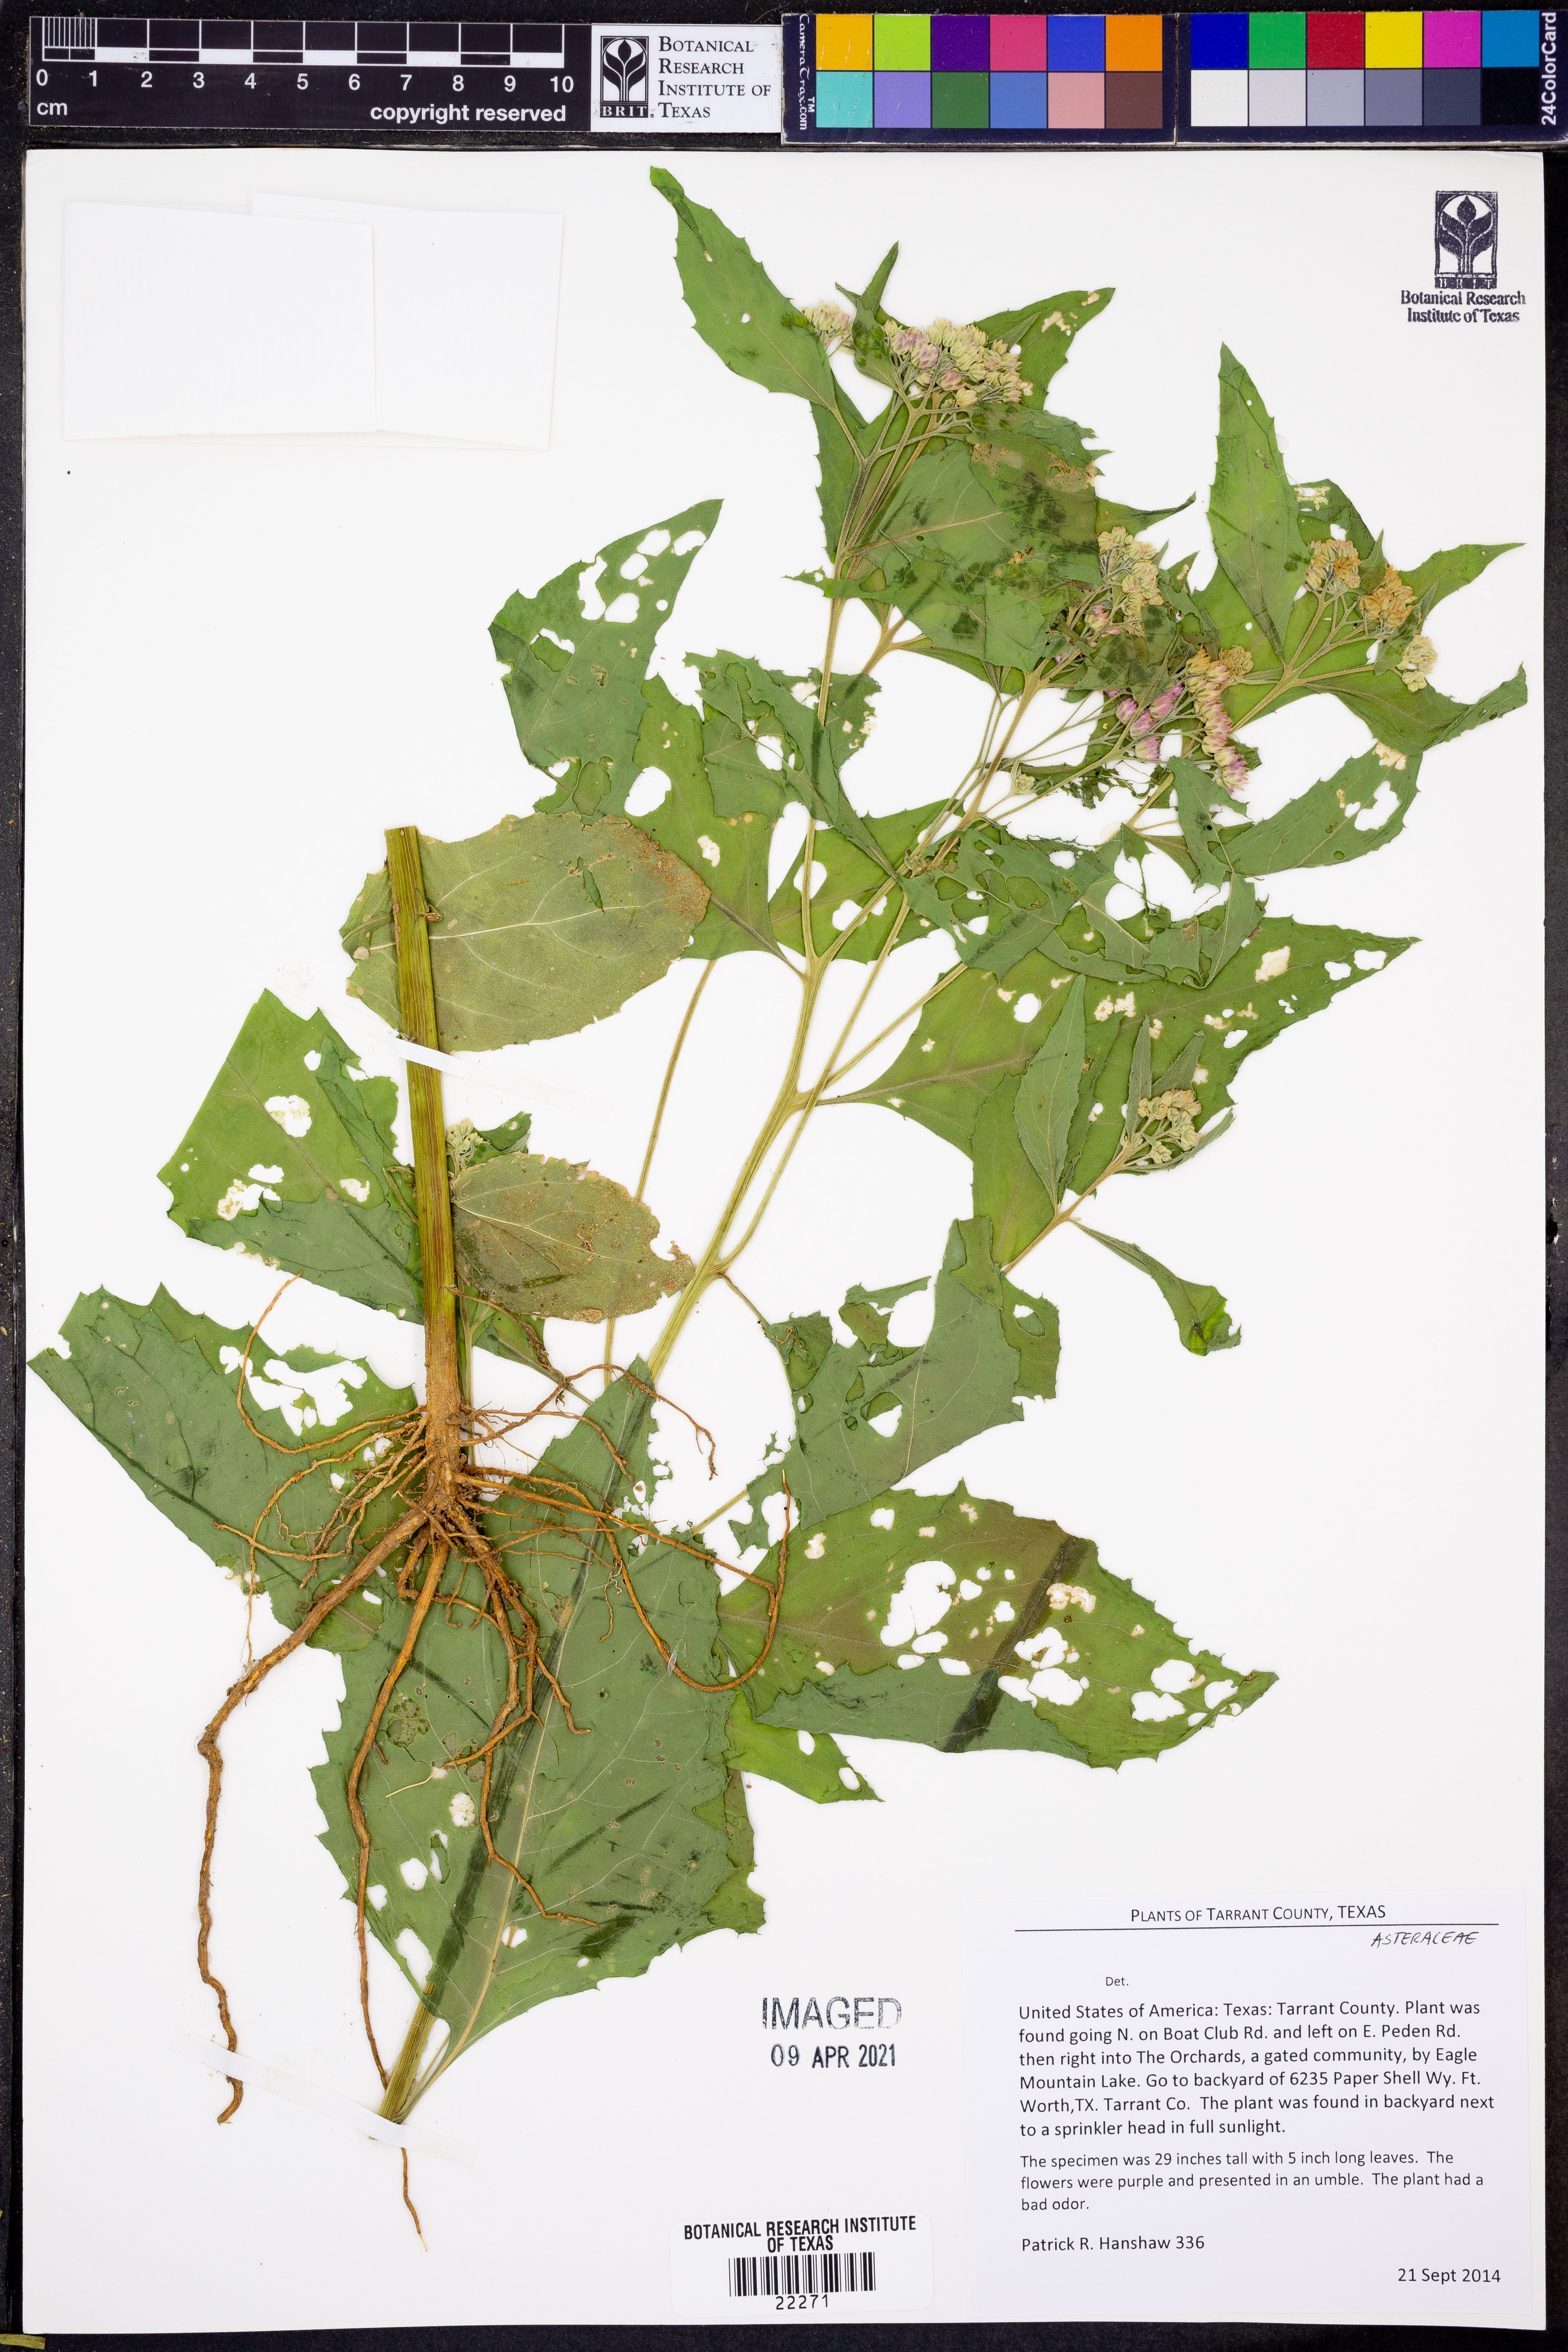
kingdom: Plantae
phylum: Tracheophyta
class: Magnoliopsida
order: Asterales
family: Asteraceae
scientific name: Asteraceae
